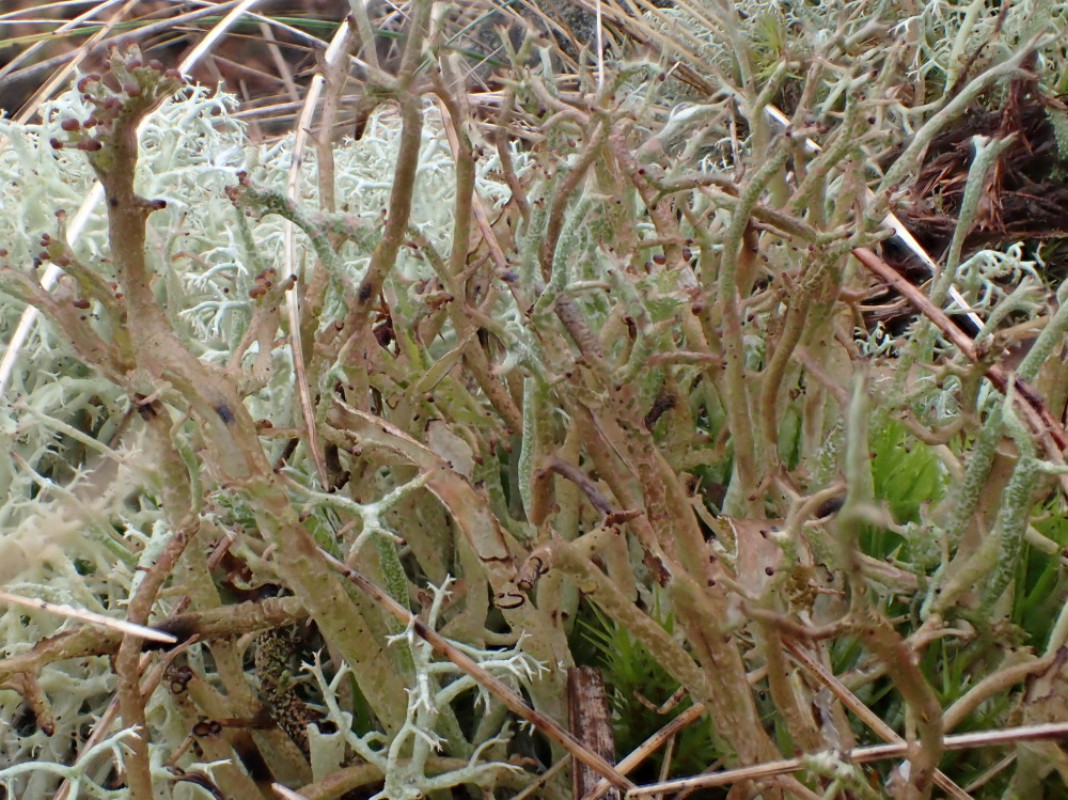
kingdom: Fungi
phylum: Ascomycota
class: Lecanoromycetes
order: Lecanorales
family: Cladoniaceae
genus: Cladonia
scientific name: Cladonia furcata
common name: kløftet bægerlav
